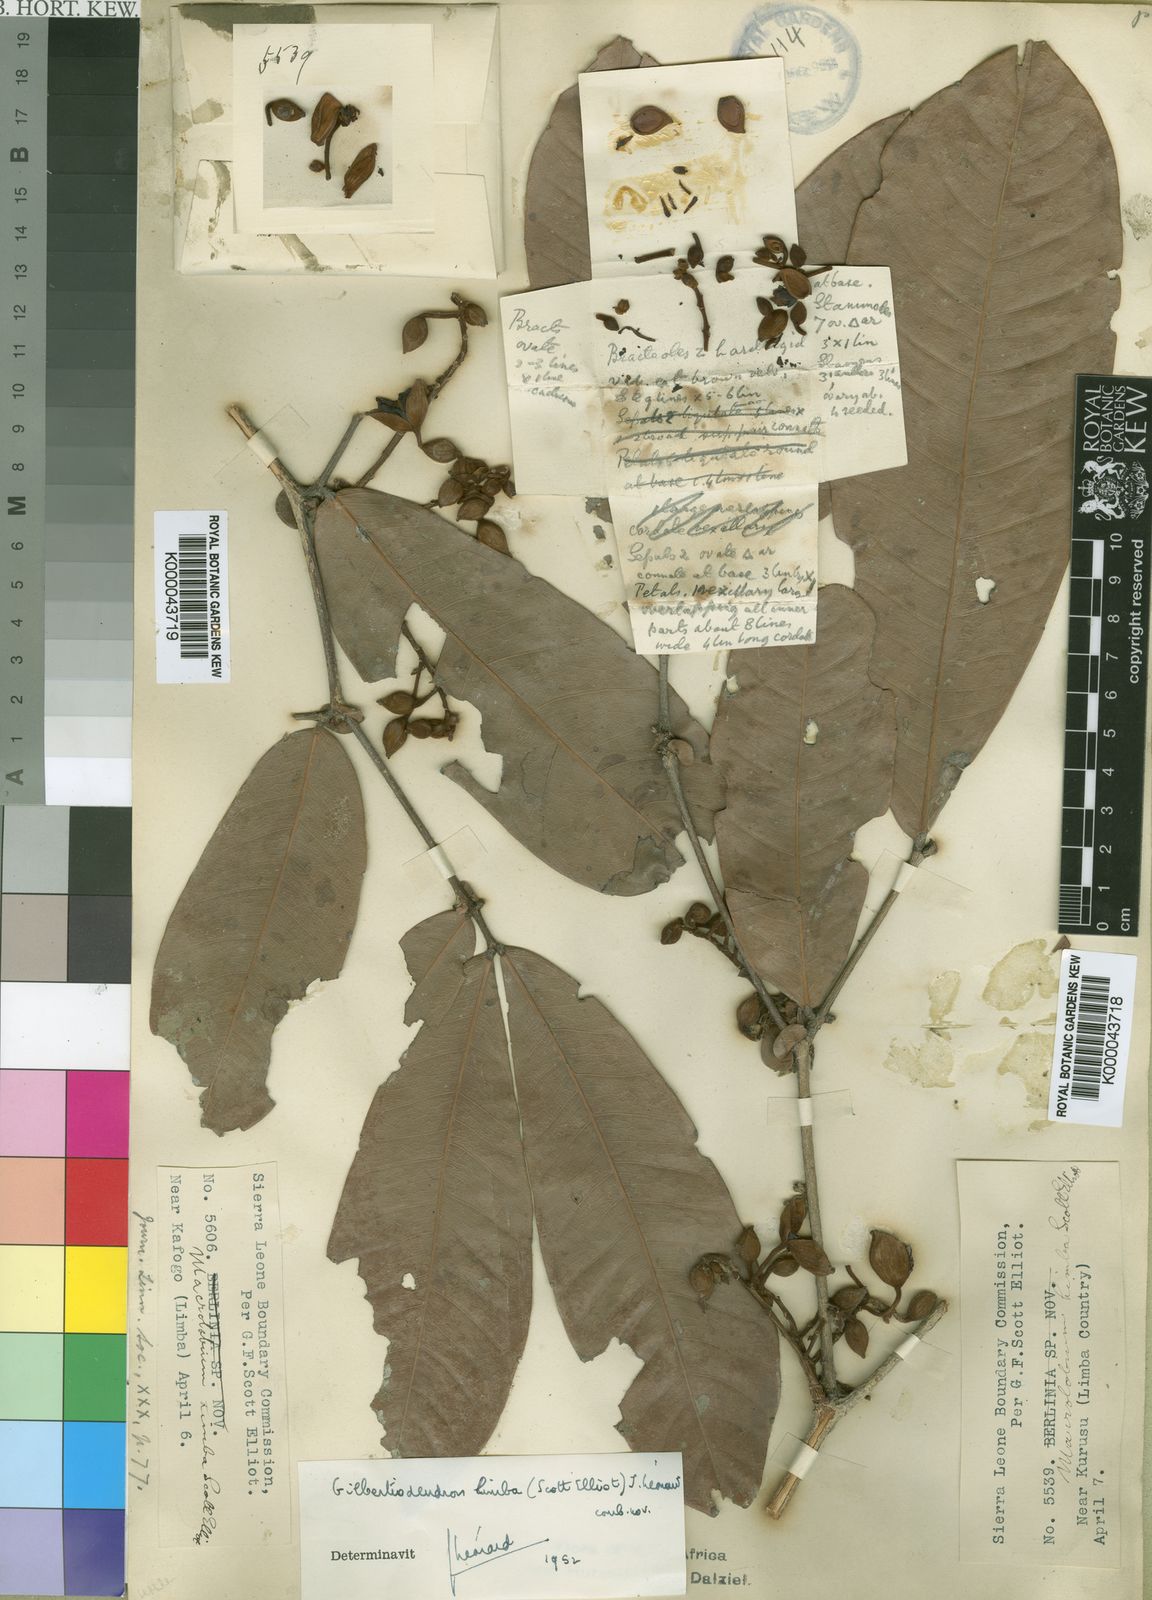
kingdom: Plantae
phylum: Tracheophyta
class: Magnoliopsida
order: Fabales
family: Fabaceae
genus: Gilbertiodendron
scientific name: Gilbertiodendron
